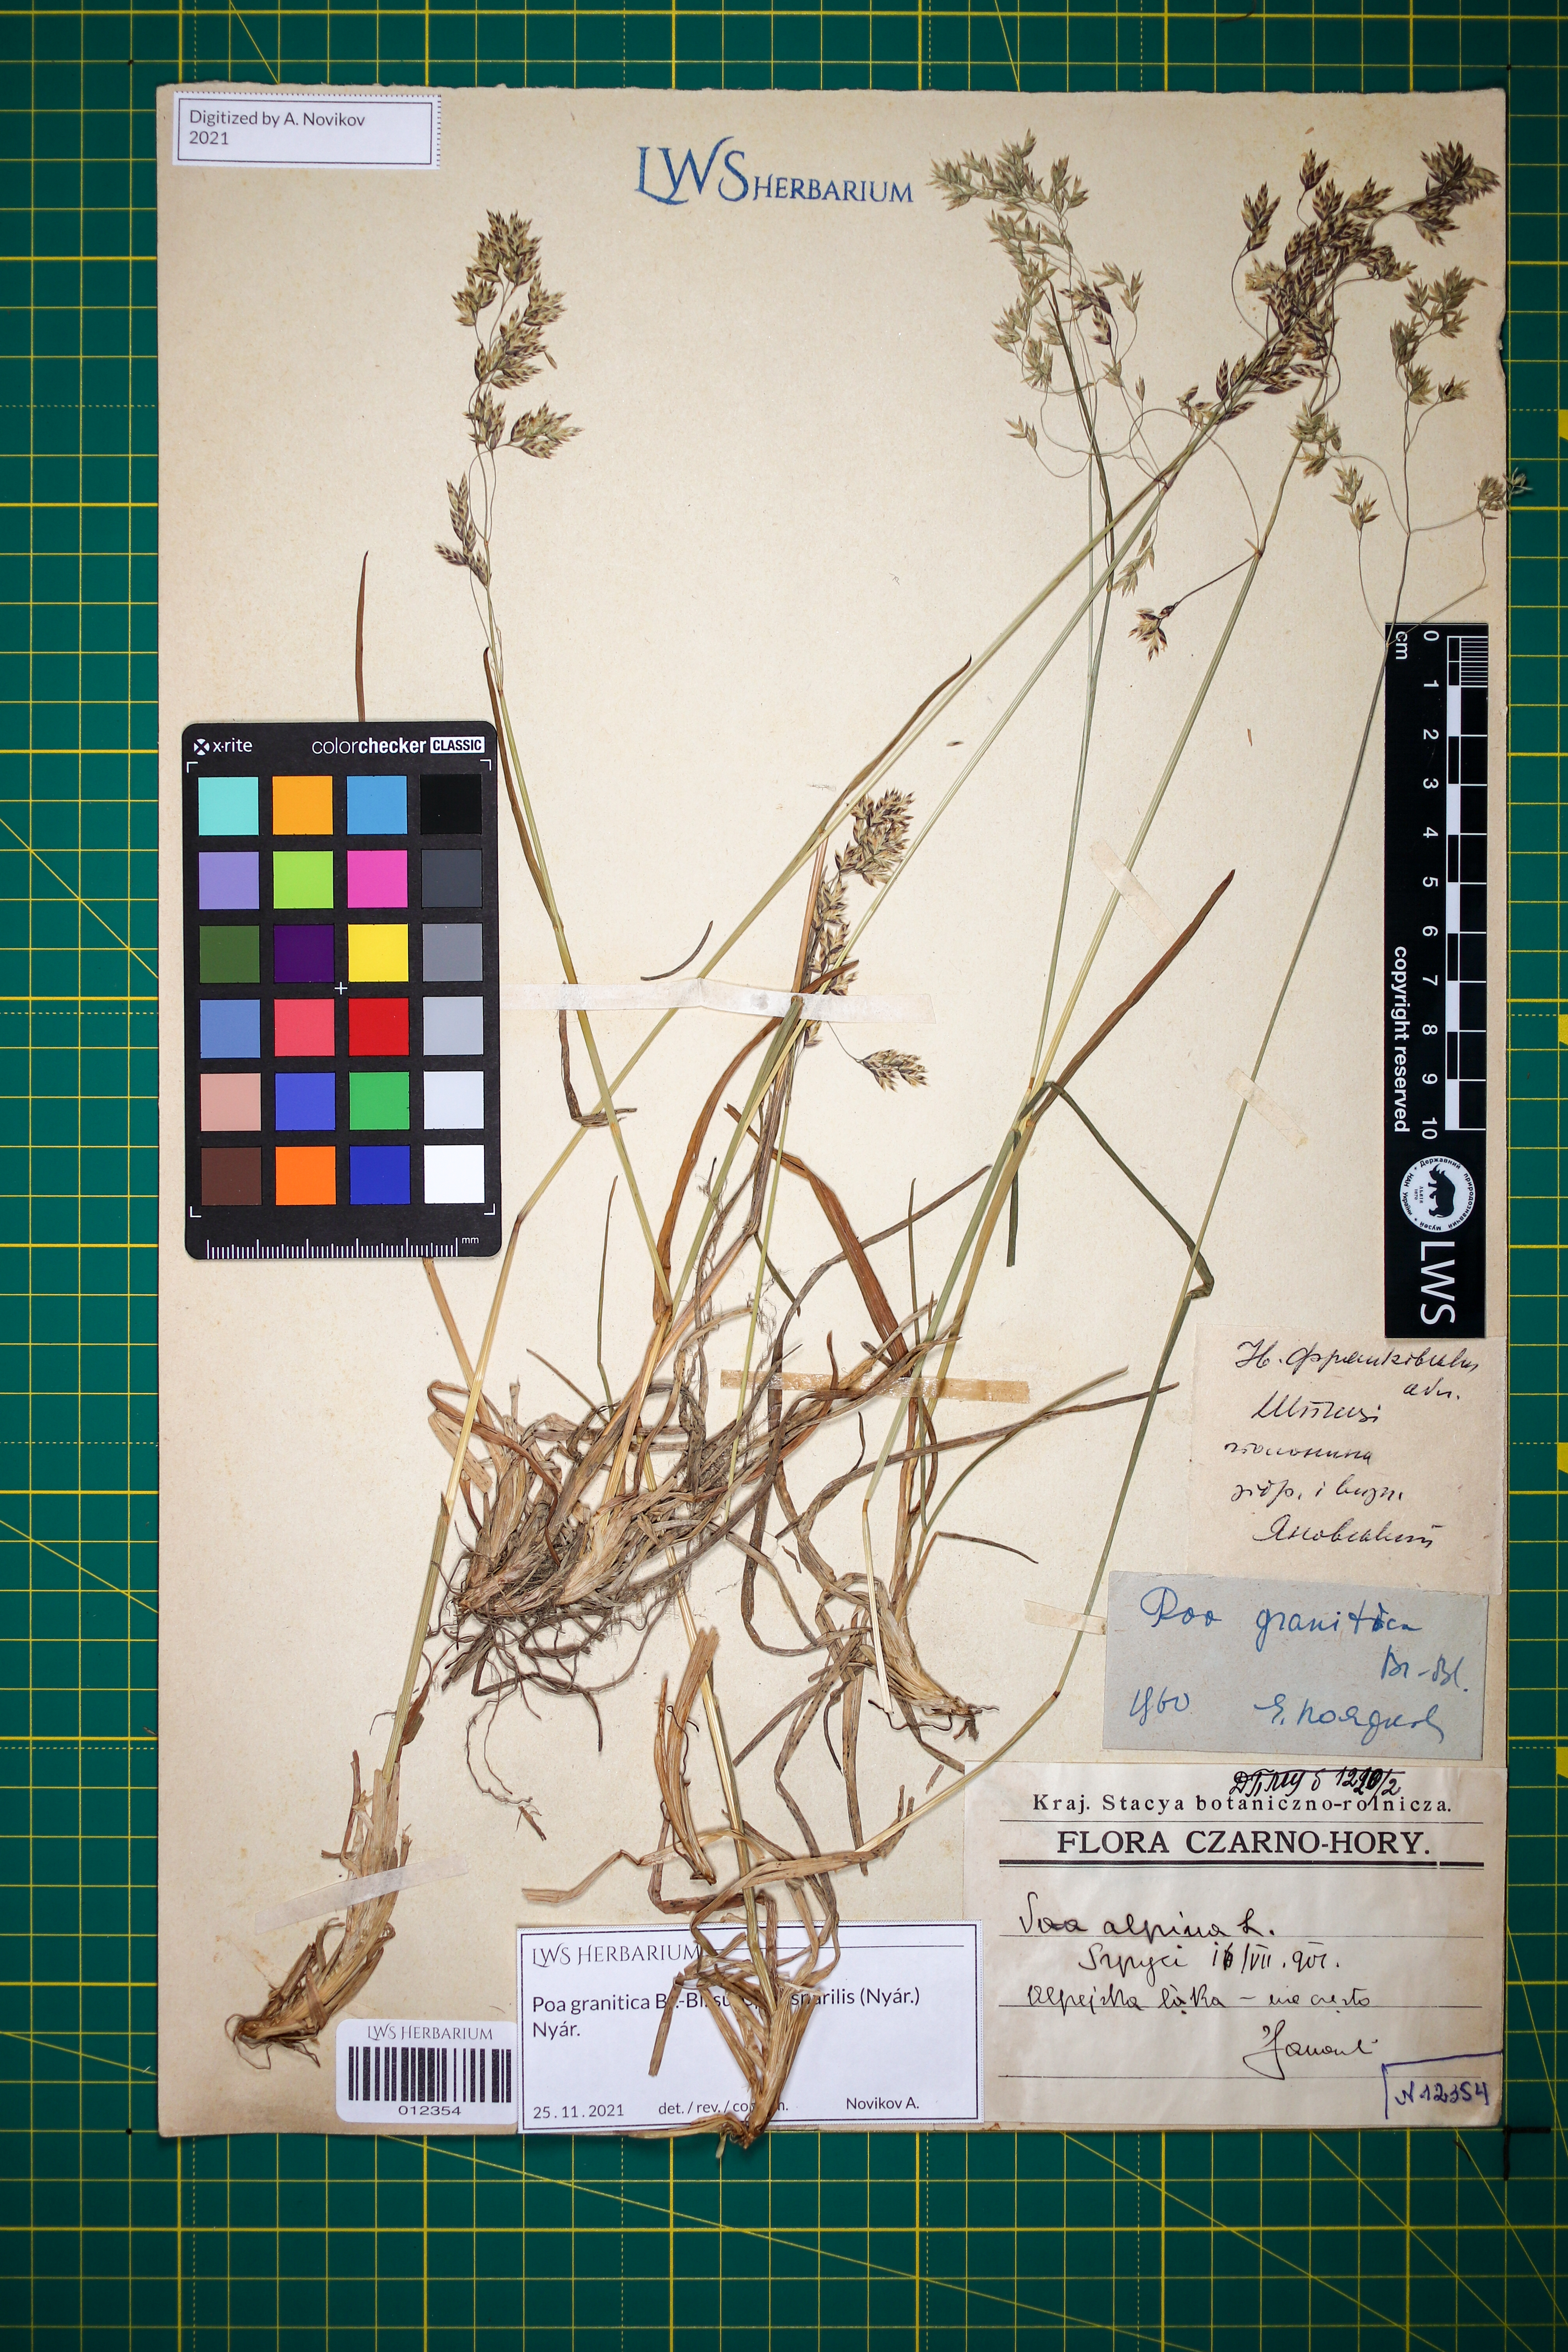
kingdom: Plantae
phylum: Tracheophyta
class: Liliopsida
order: Poales
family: Poaceae
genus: Poa
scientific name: Poa granitica
